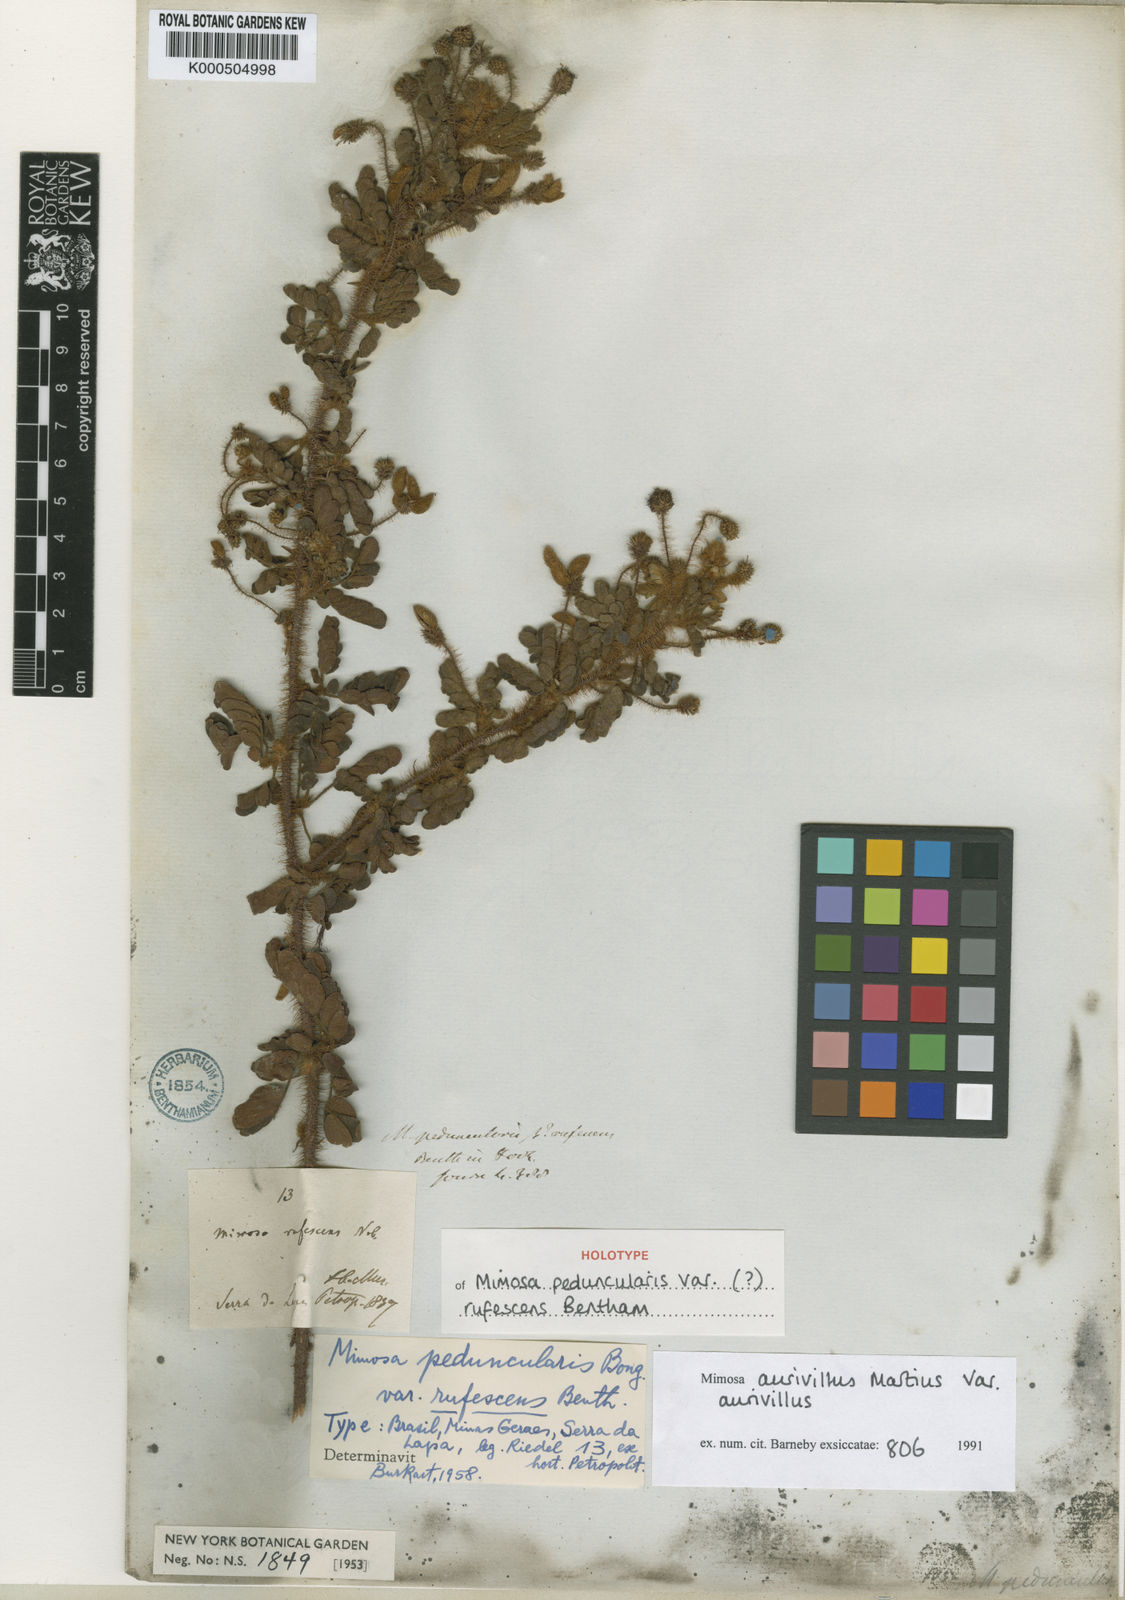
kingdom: Plantae
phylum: Tracheophyta
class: Magnoliopsida
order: Fabales
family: Fabaceae
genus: Mimosa
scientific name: Mimosa aurivillus
